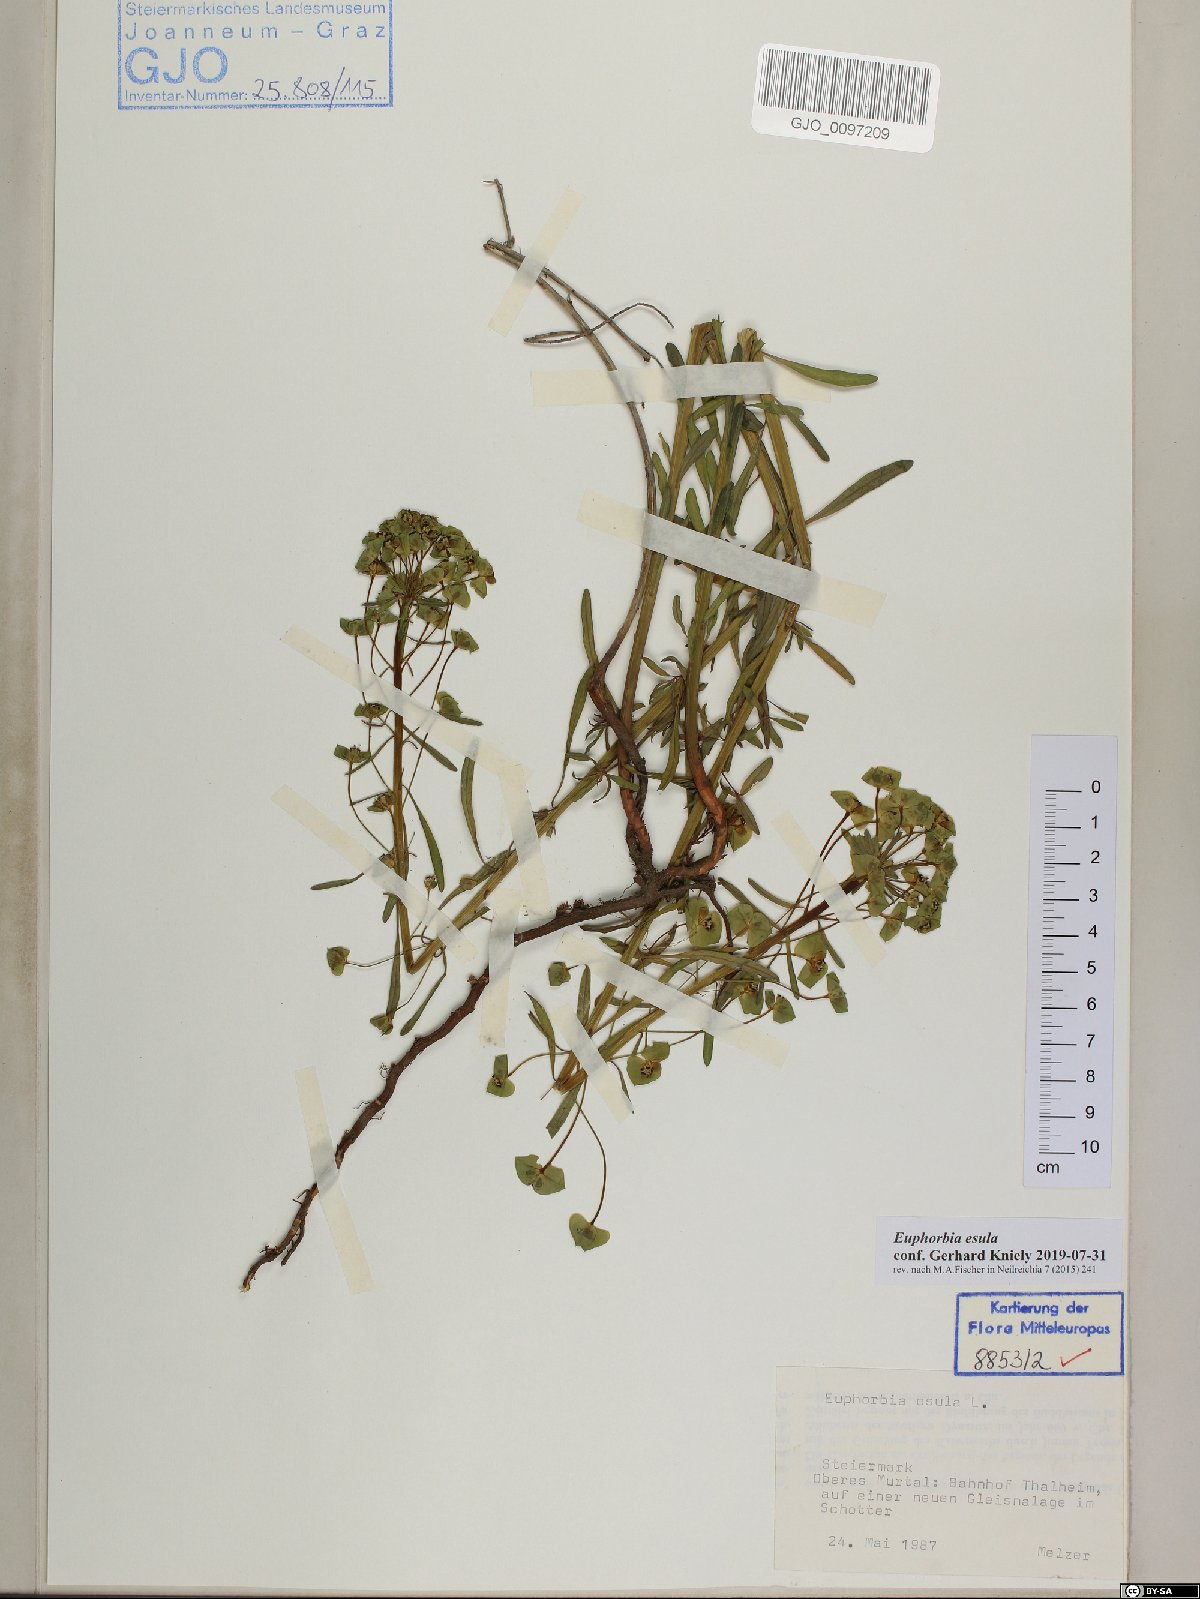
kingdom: Plantae
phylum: Tracheophyta
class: Magnoliopsida
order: Malpighiales
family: Euphorbiaceae
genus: Euphorbia
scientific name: Euphorbia esula
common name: Leafy spurge
